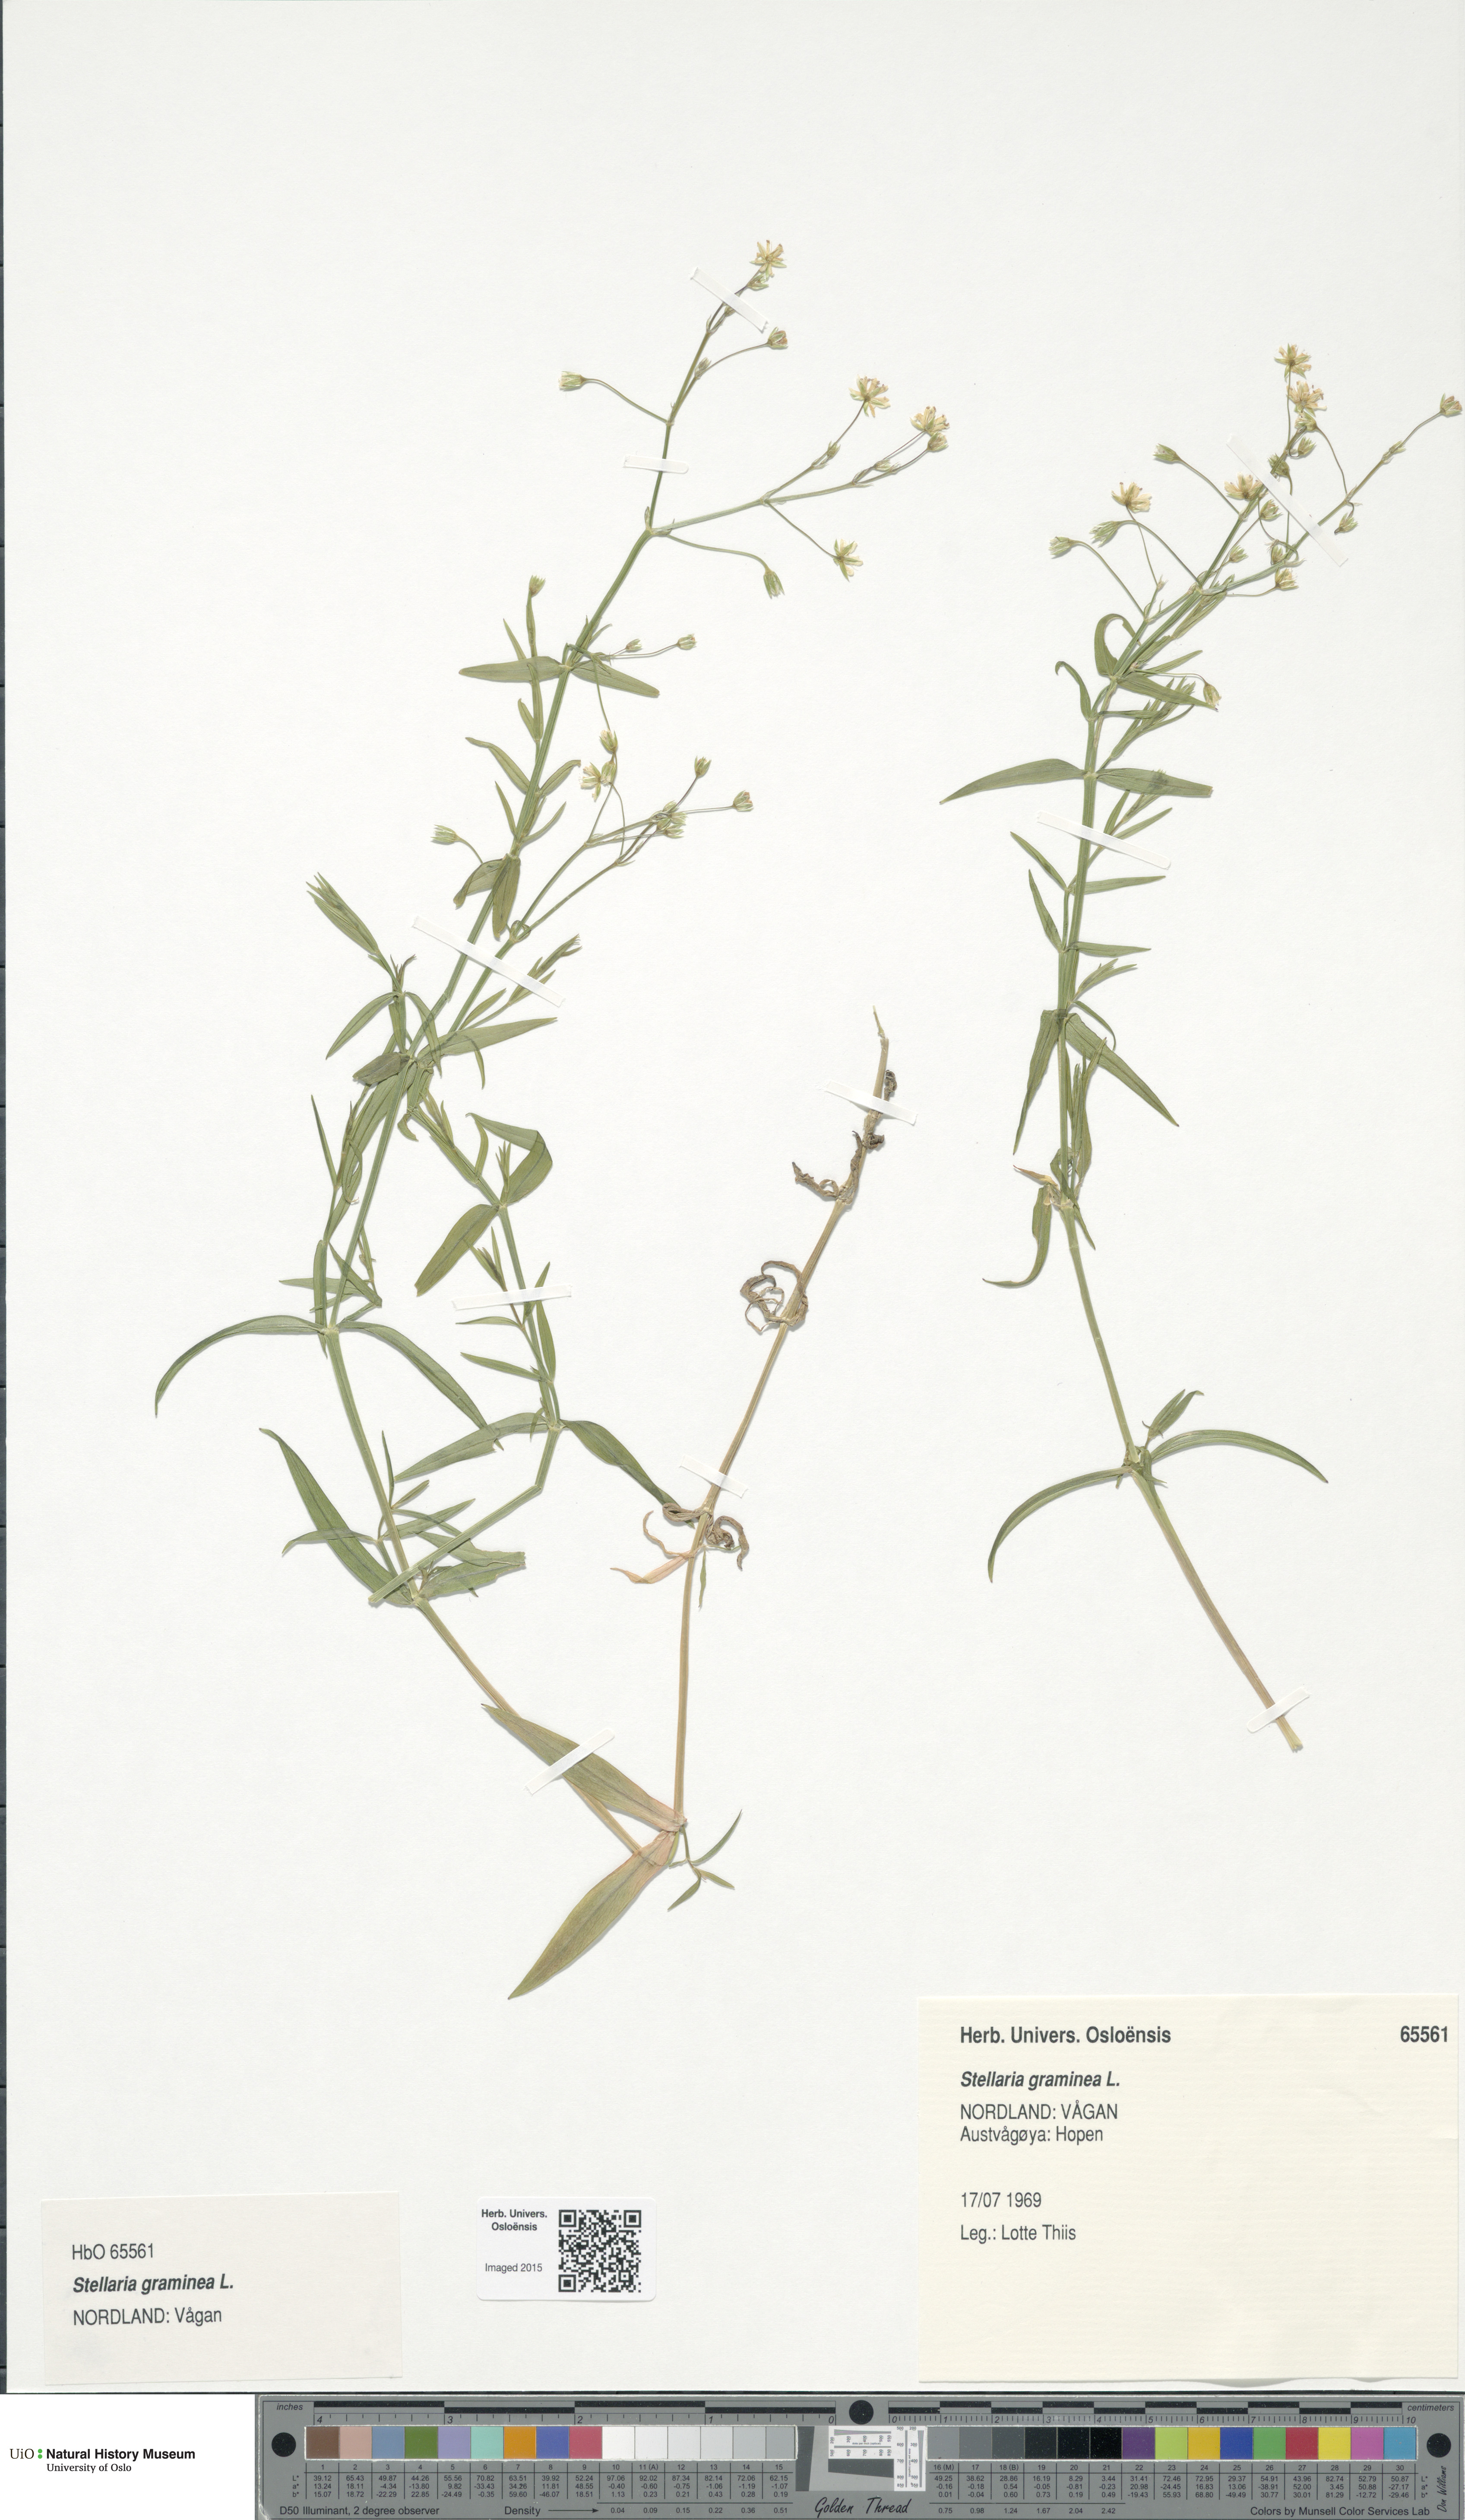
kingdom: Plantae
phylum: Tracheophyta
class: Magnoliopsida
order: Caryophyllales
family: Caryophyllaceae
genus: Stellaria
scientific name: Stellaria graminea
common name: Grass-like starwort
